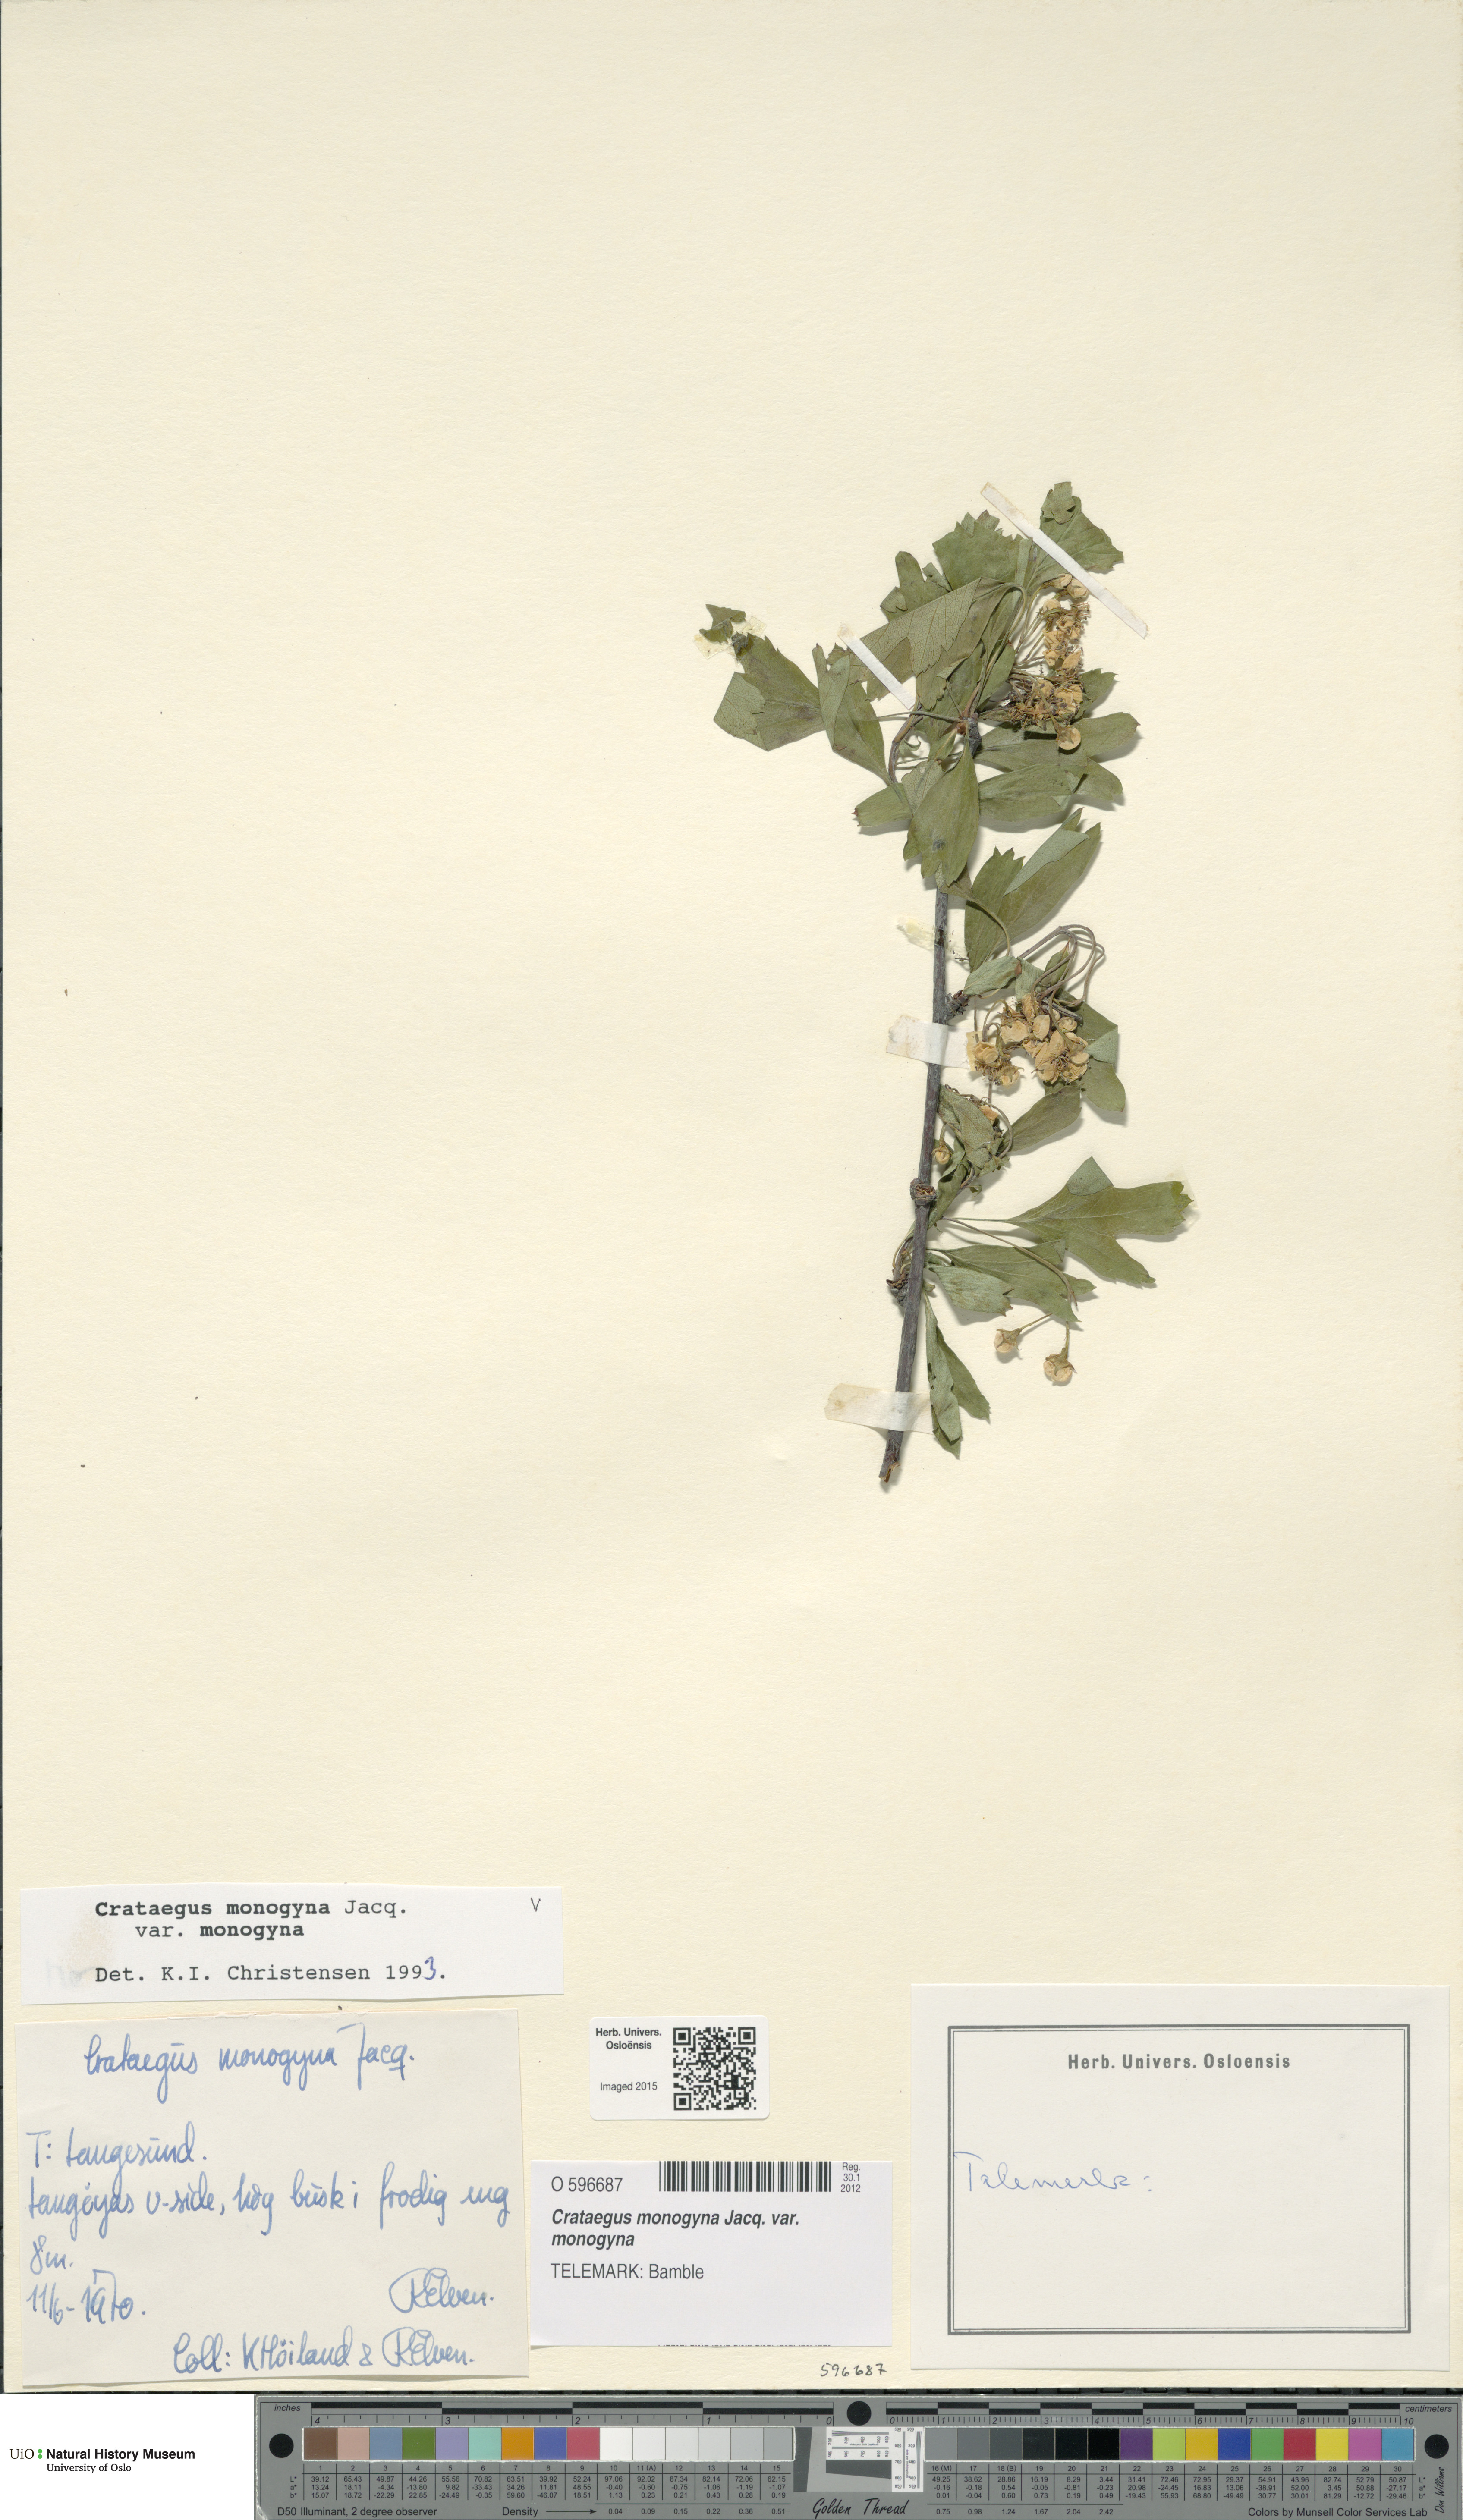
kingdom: Plantae
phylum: Tracheophyta
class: Magnoliopsida
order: Rosales
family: Rosaceae
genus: Crataegus
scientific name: Crataegus monogyna
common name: Hawthorn
